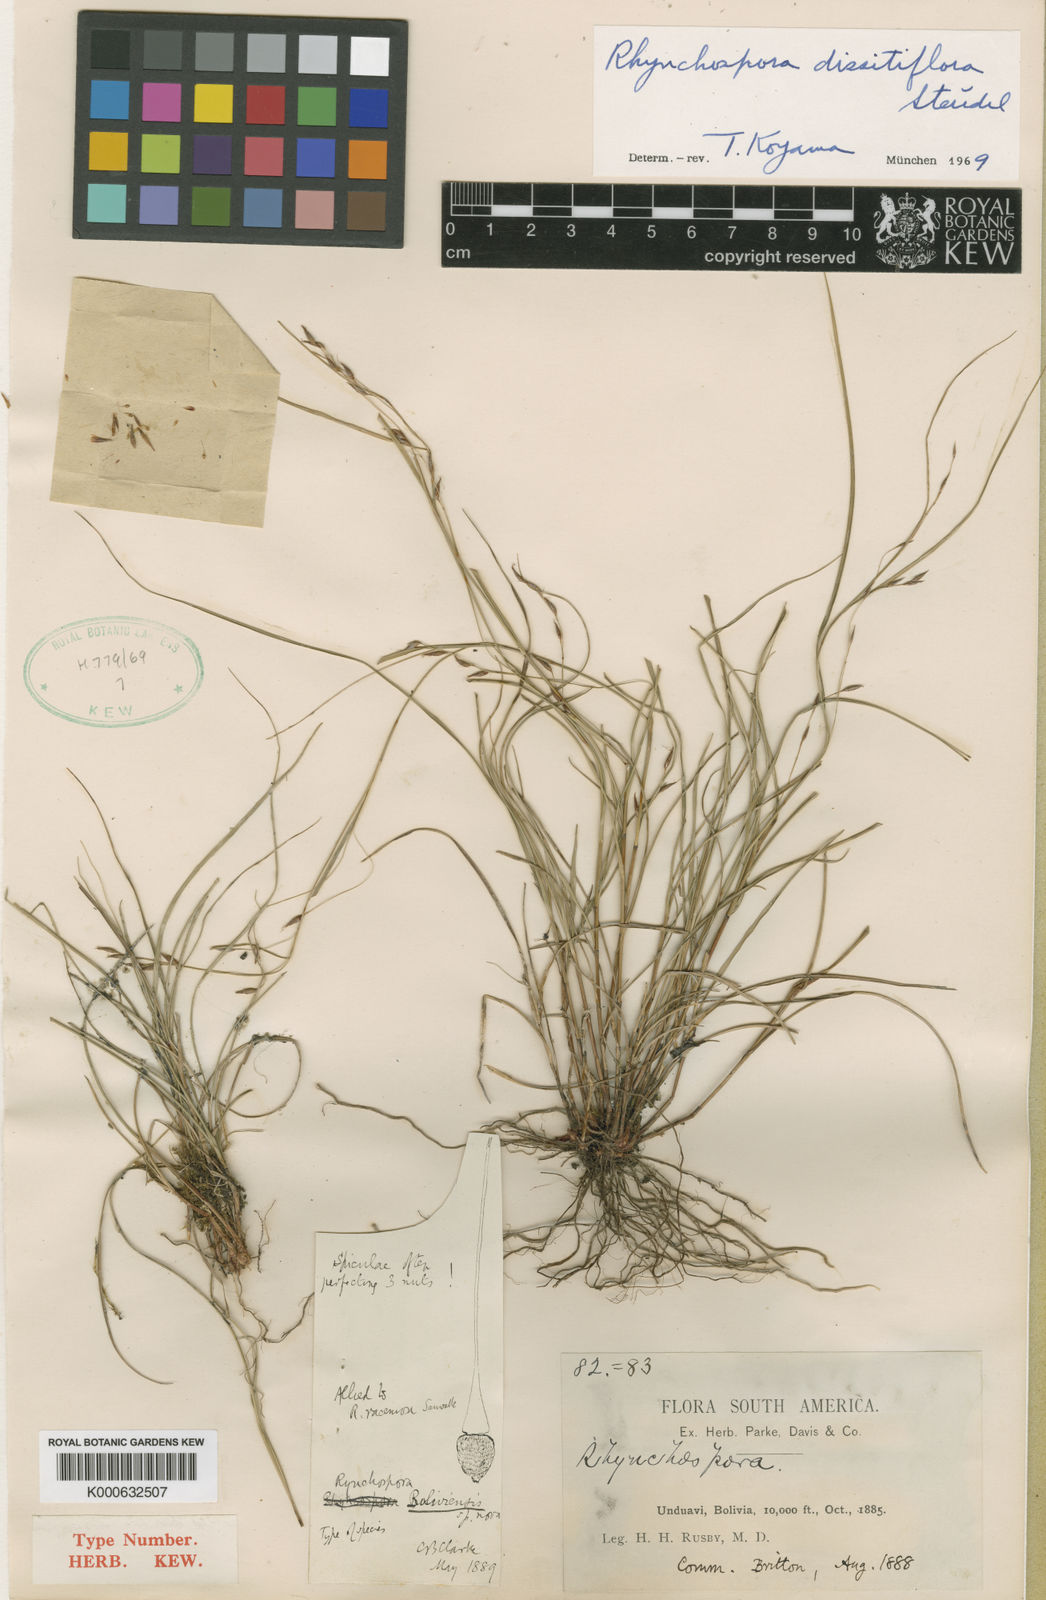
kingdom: Plantae
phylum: Tracheophyta
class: Liliopsida
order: Poales
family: Cyperaceae
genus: Rhynchospora
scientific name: Rhynchospora dissitiflora
